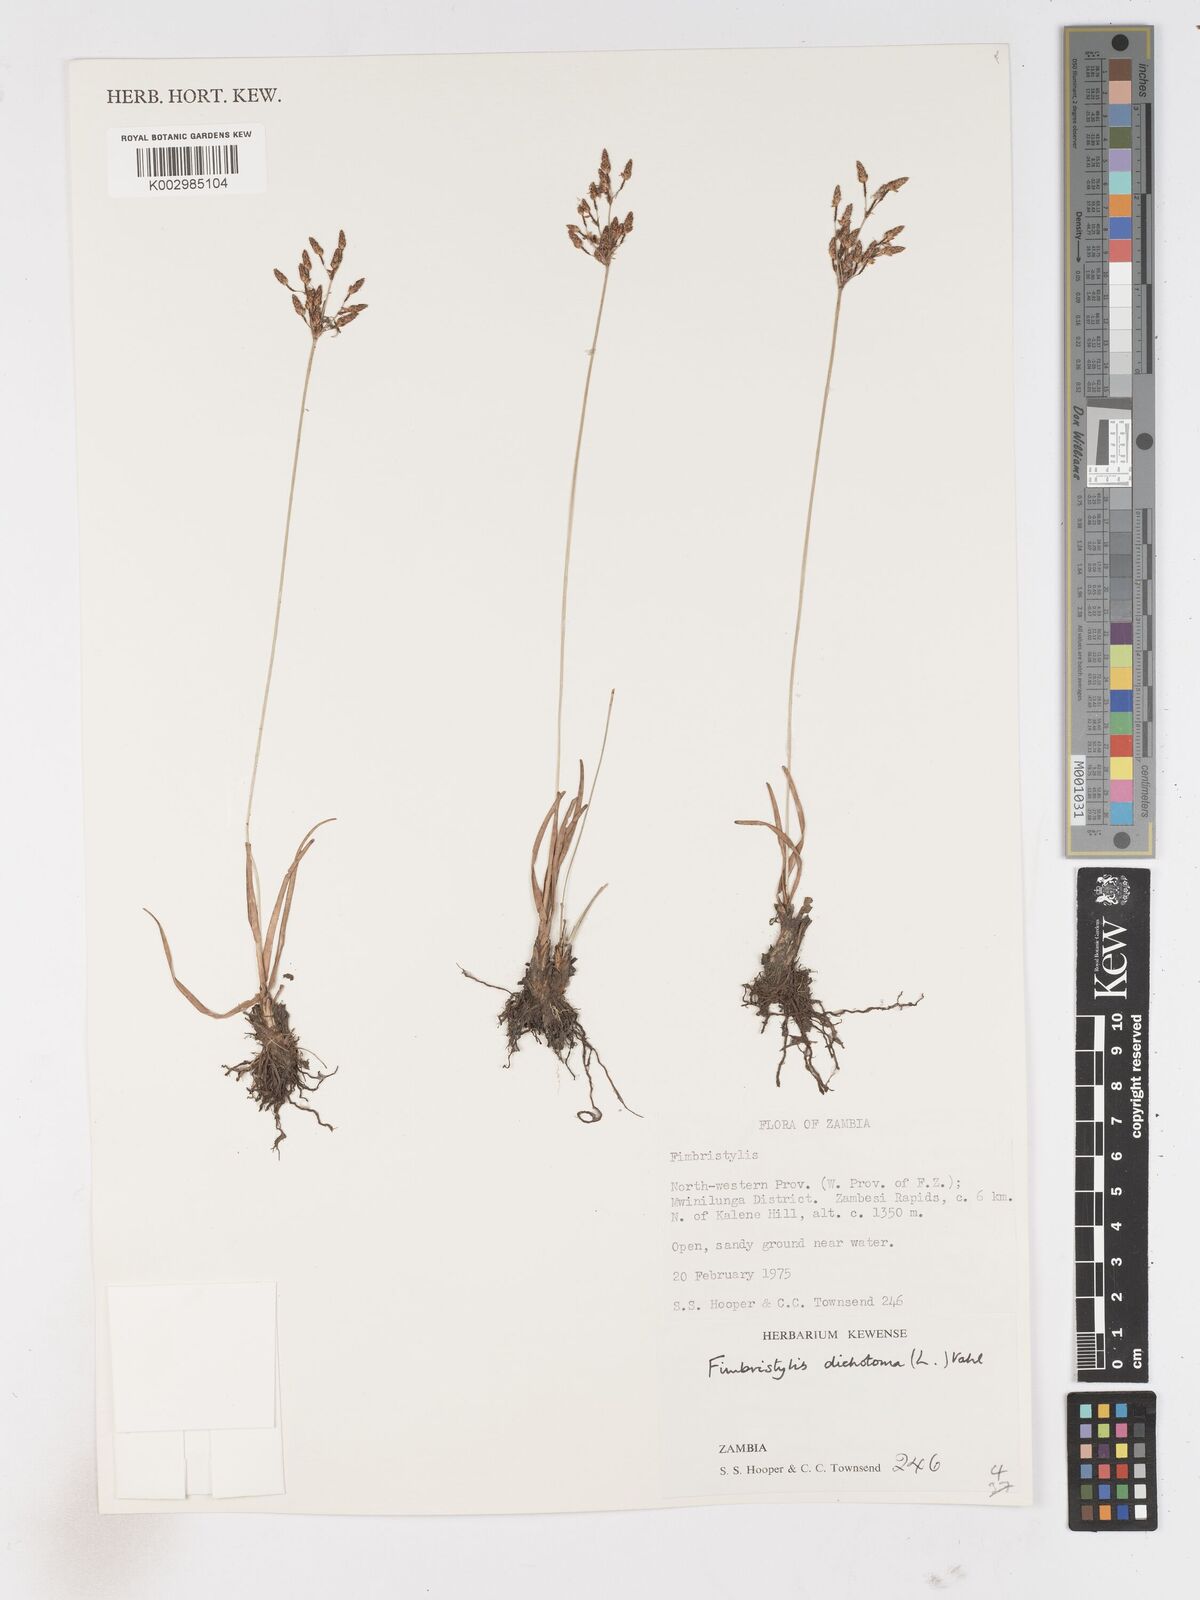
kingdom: Plantae
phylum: Tracheophyta
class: Liliopsida
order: Poales
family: Cyperaceae
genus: Fimbristylis
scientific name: Fimbristylis dichotoma
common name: Forked fimbry
